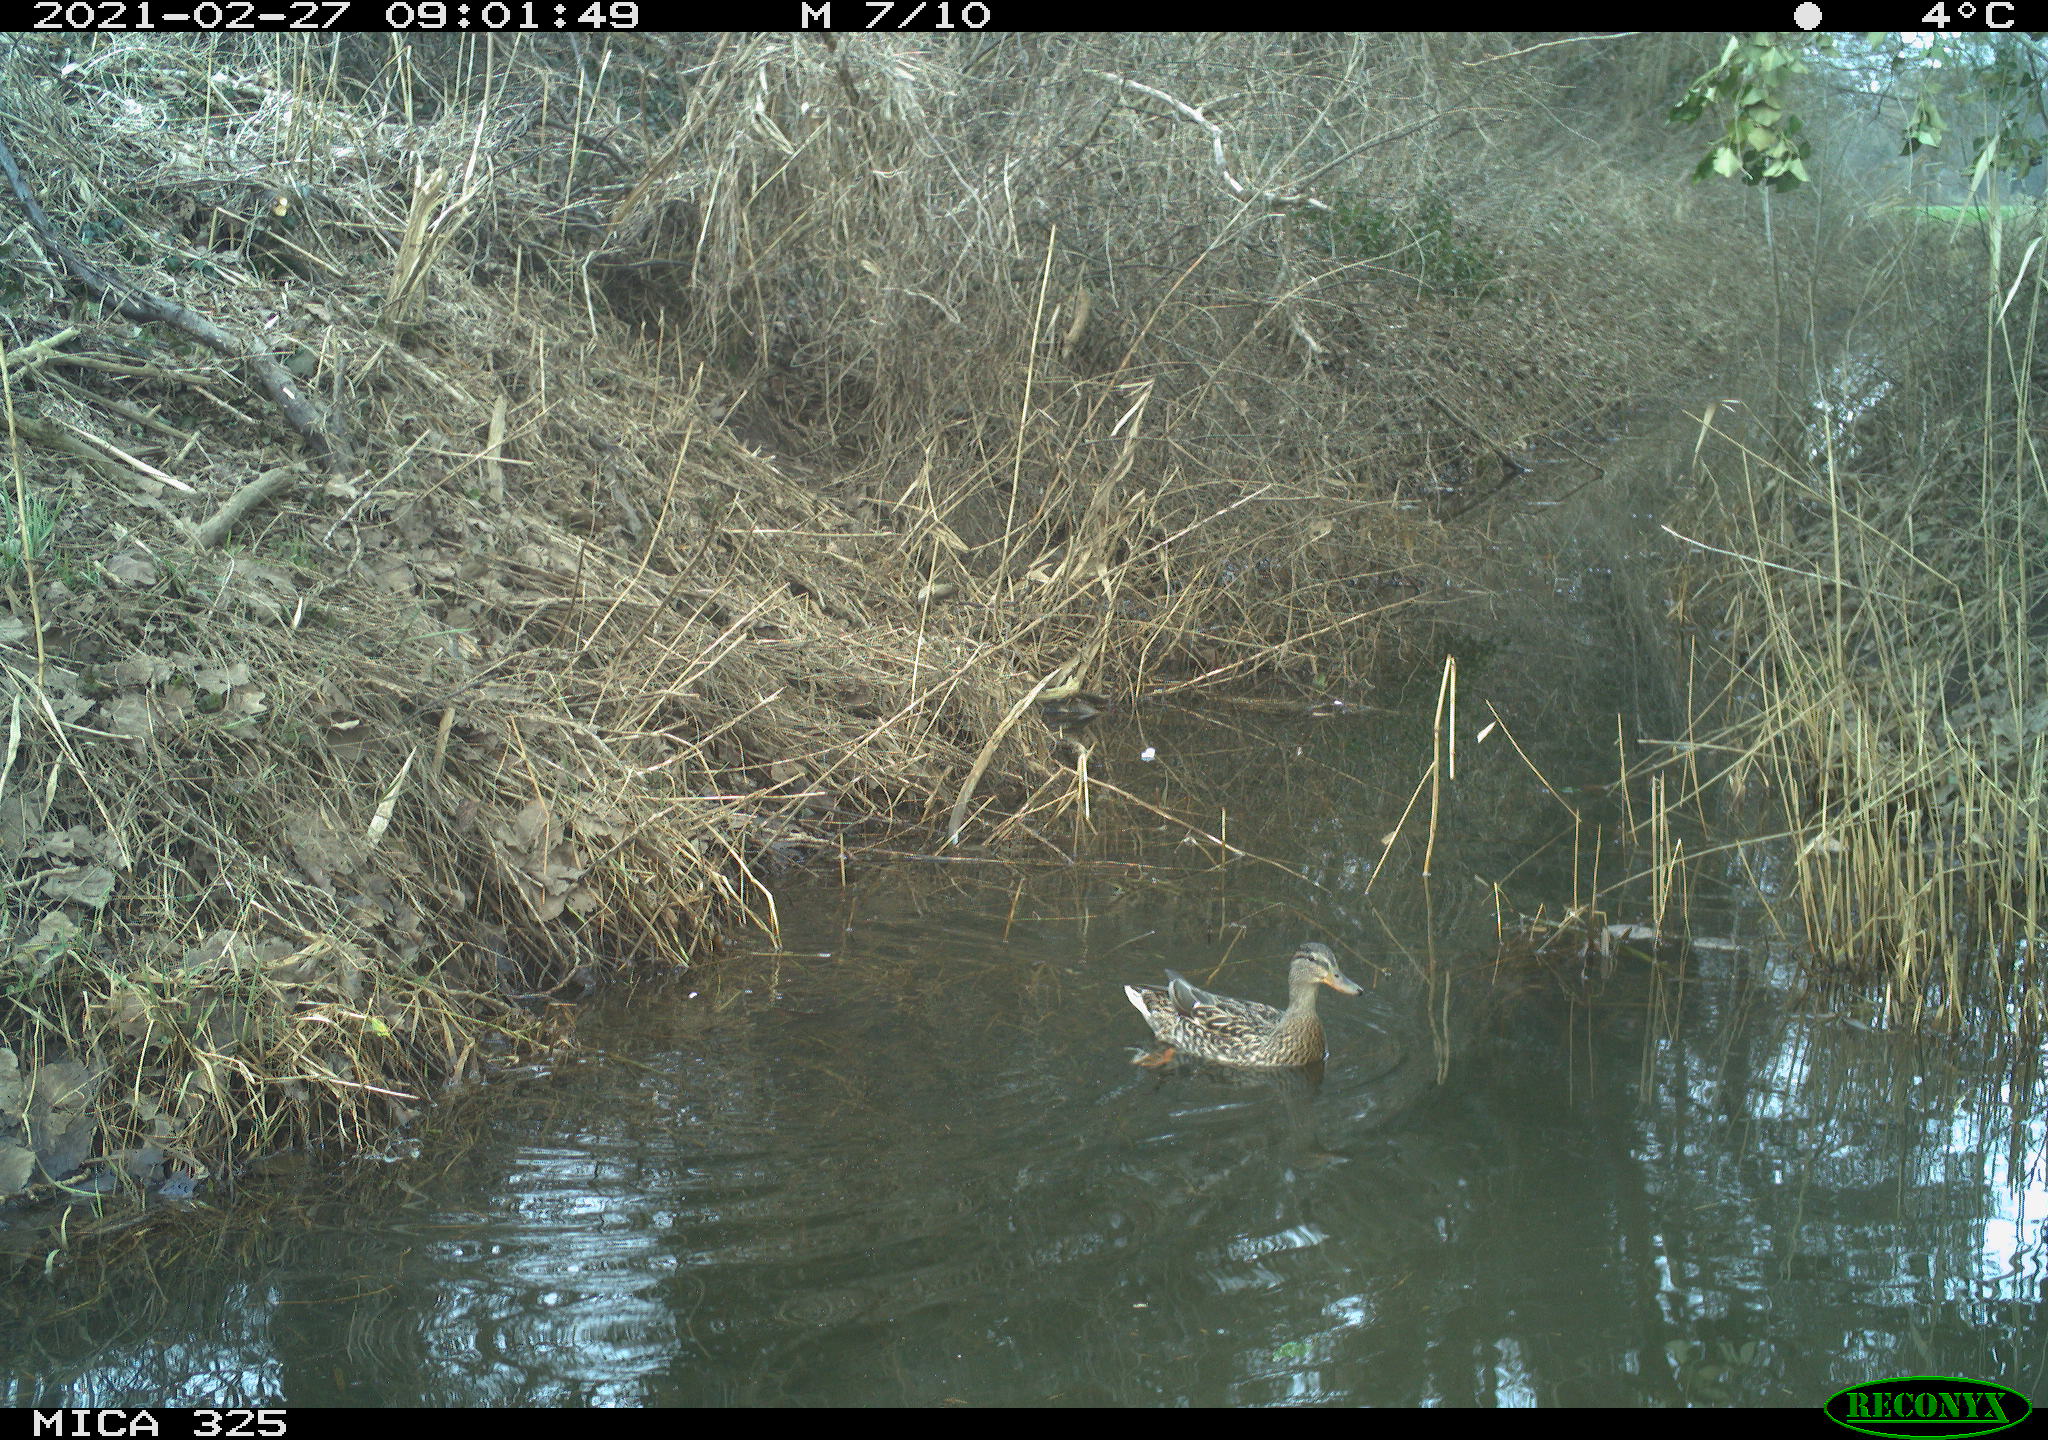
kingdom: Animalia
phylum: Chordata
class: Aves
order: Anseriformes
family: Anatidae
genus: Anas
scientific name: Anas platyrhynchos
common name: Mallard
